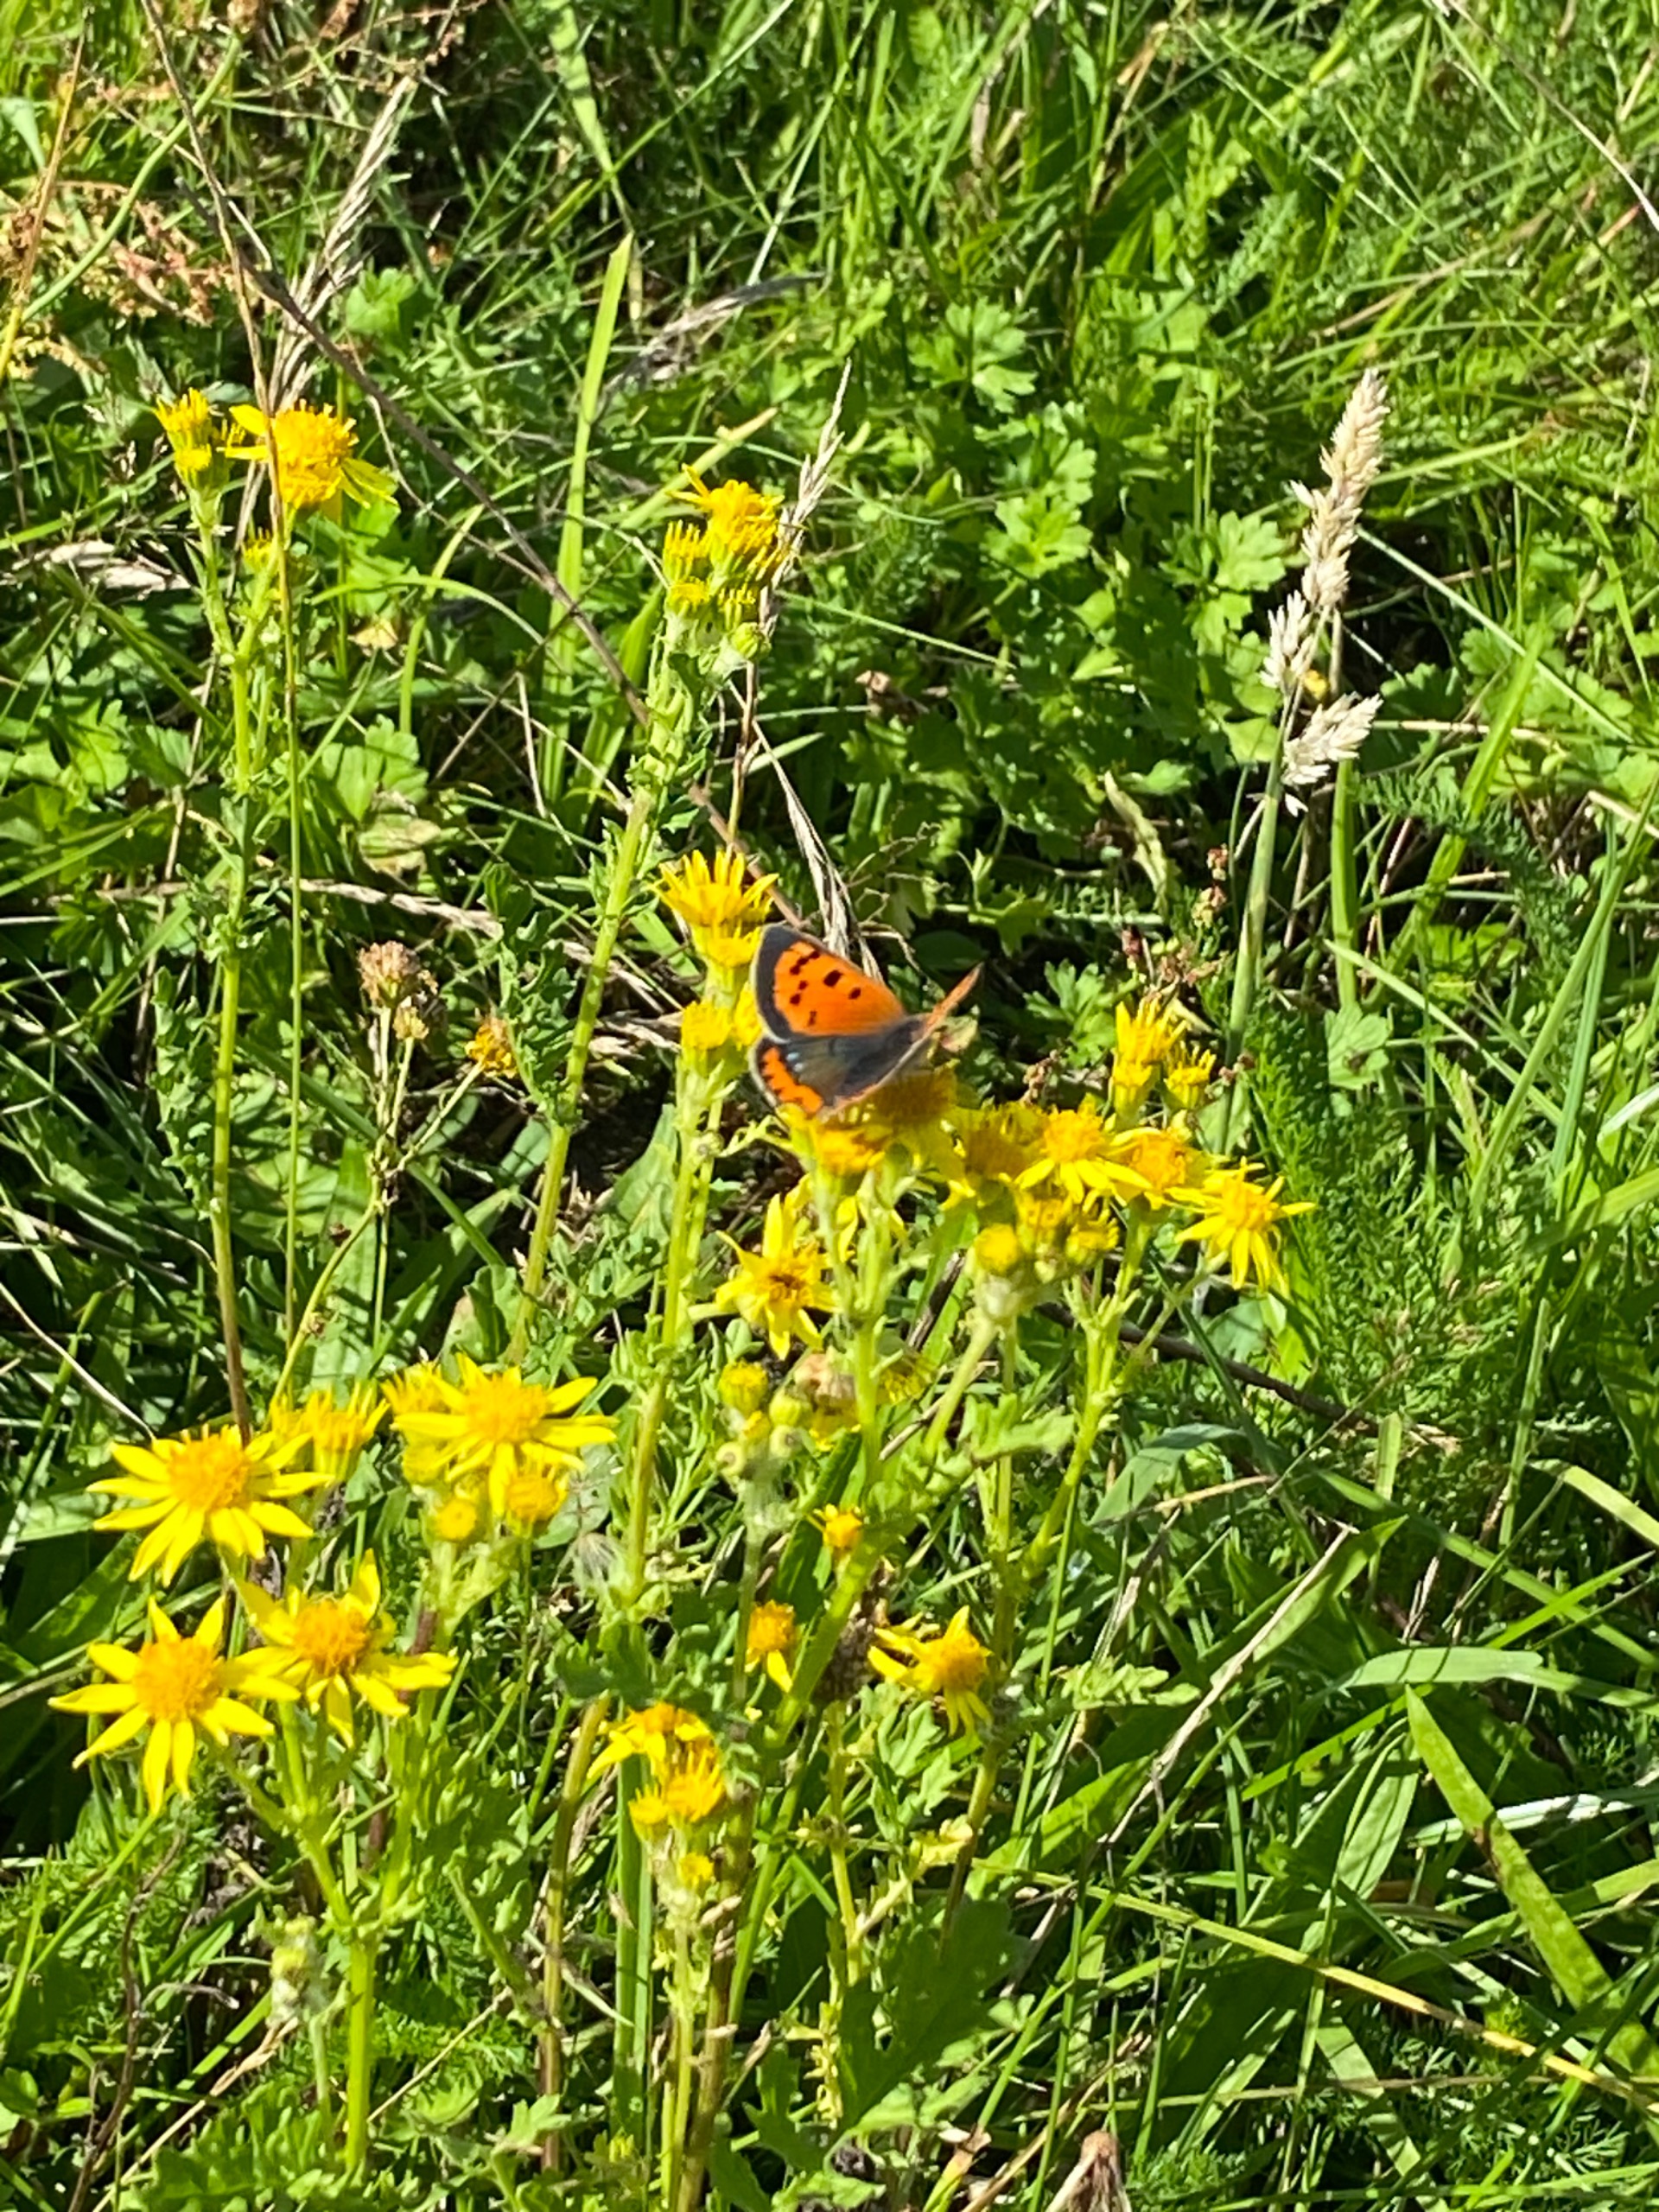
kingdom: Animalia
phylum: Arthropoda
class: Insecta
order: Lepidoptera
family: Lycaenidae
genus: Lycaena
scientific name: Lycaena phlaeas
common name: Lille ildfugl
